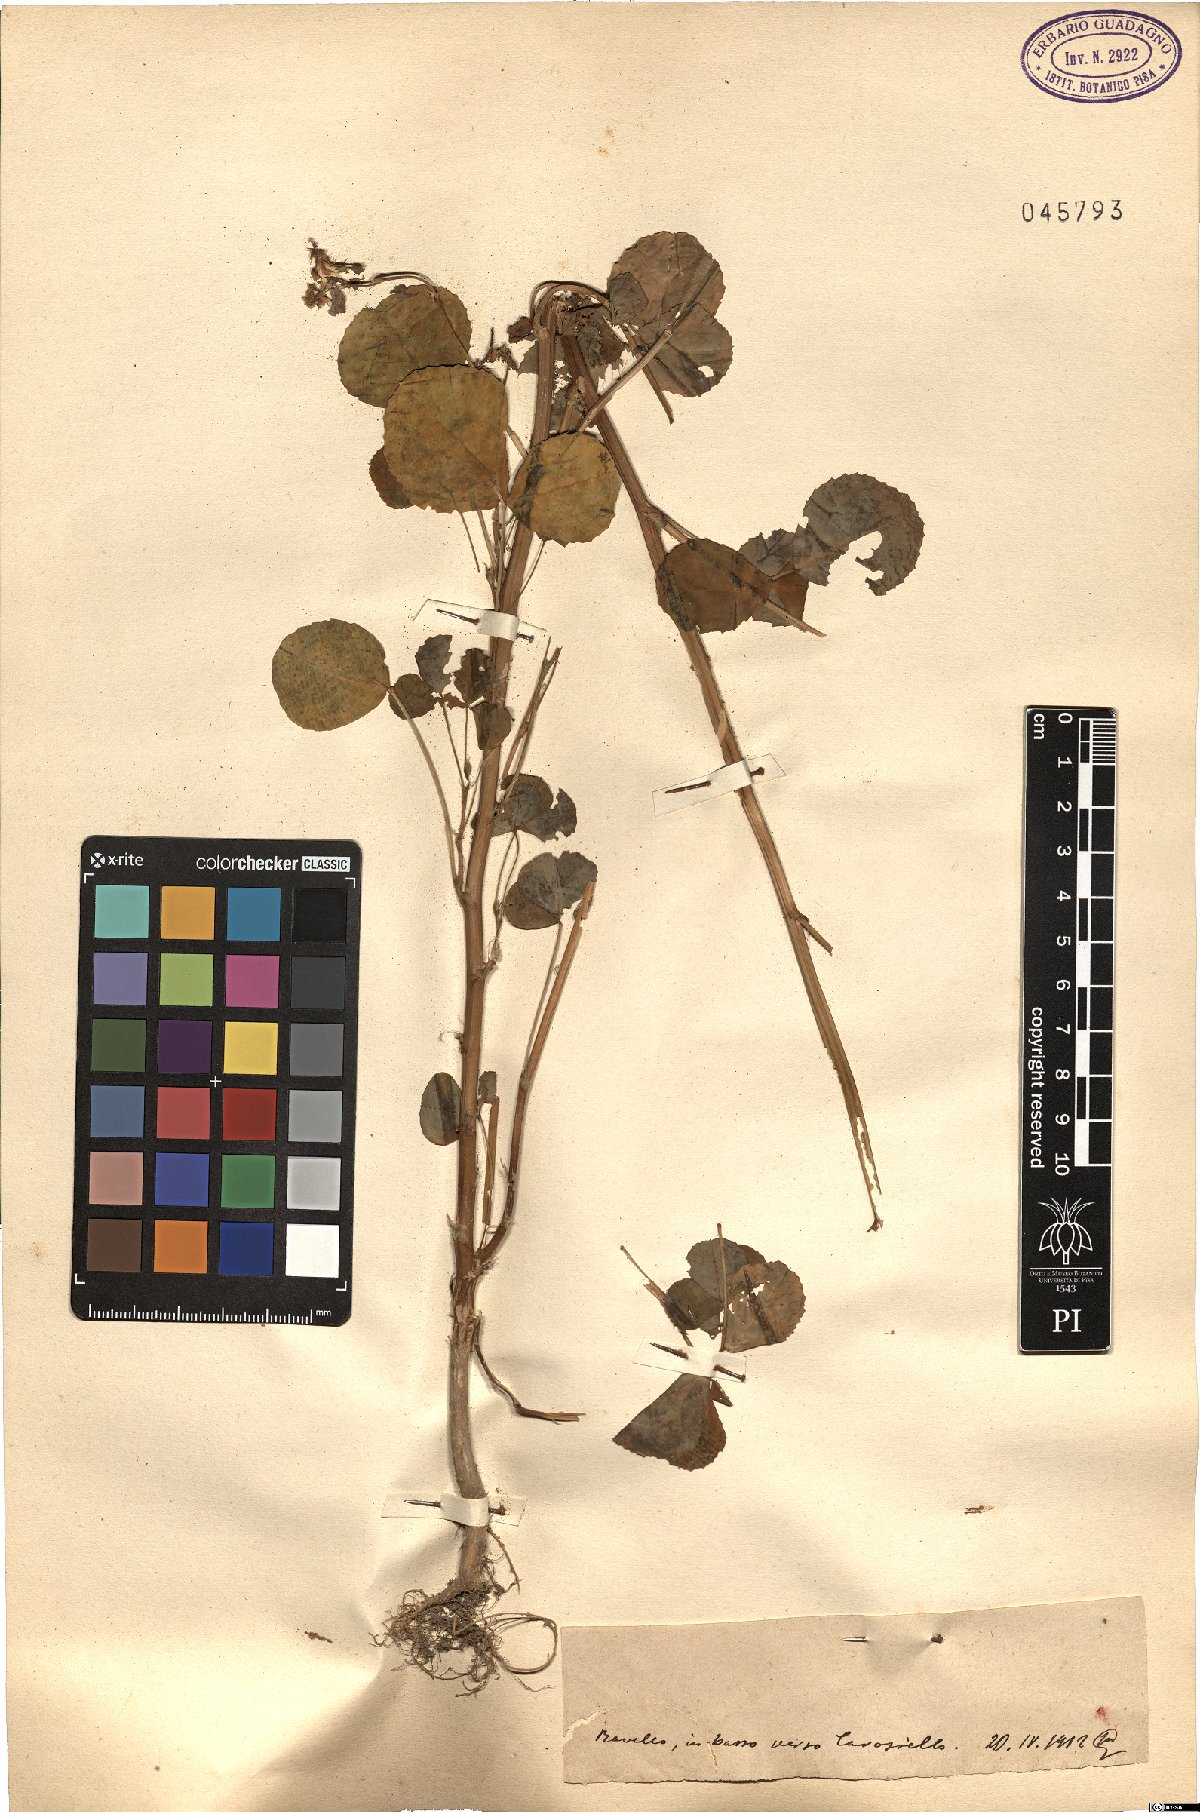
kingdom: Plantae
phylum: Tracheophyta
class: Magnoliopsida
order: Fabales
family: Fabaceae
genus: Melilotus
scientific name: Melilotus
